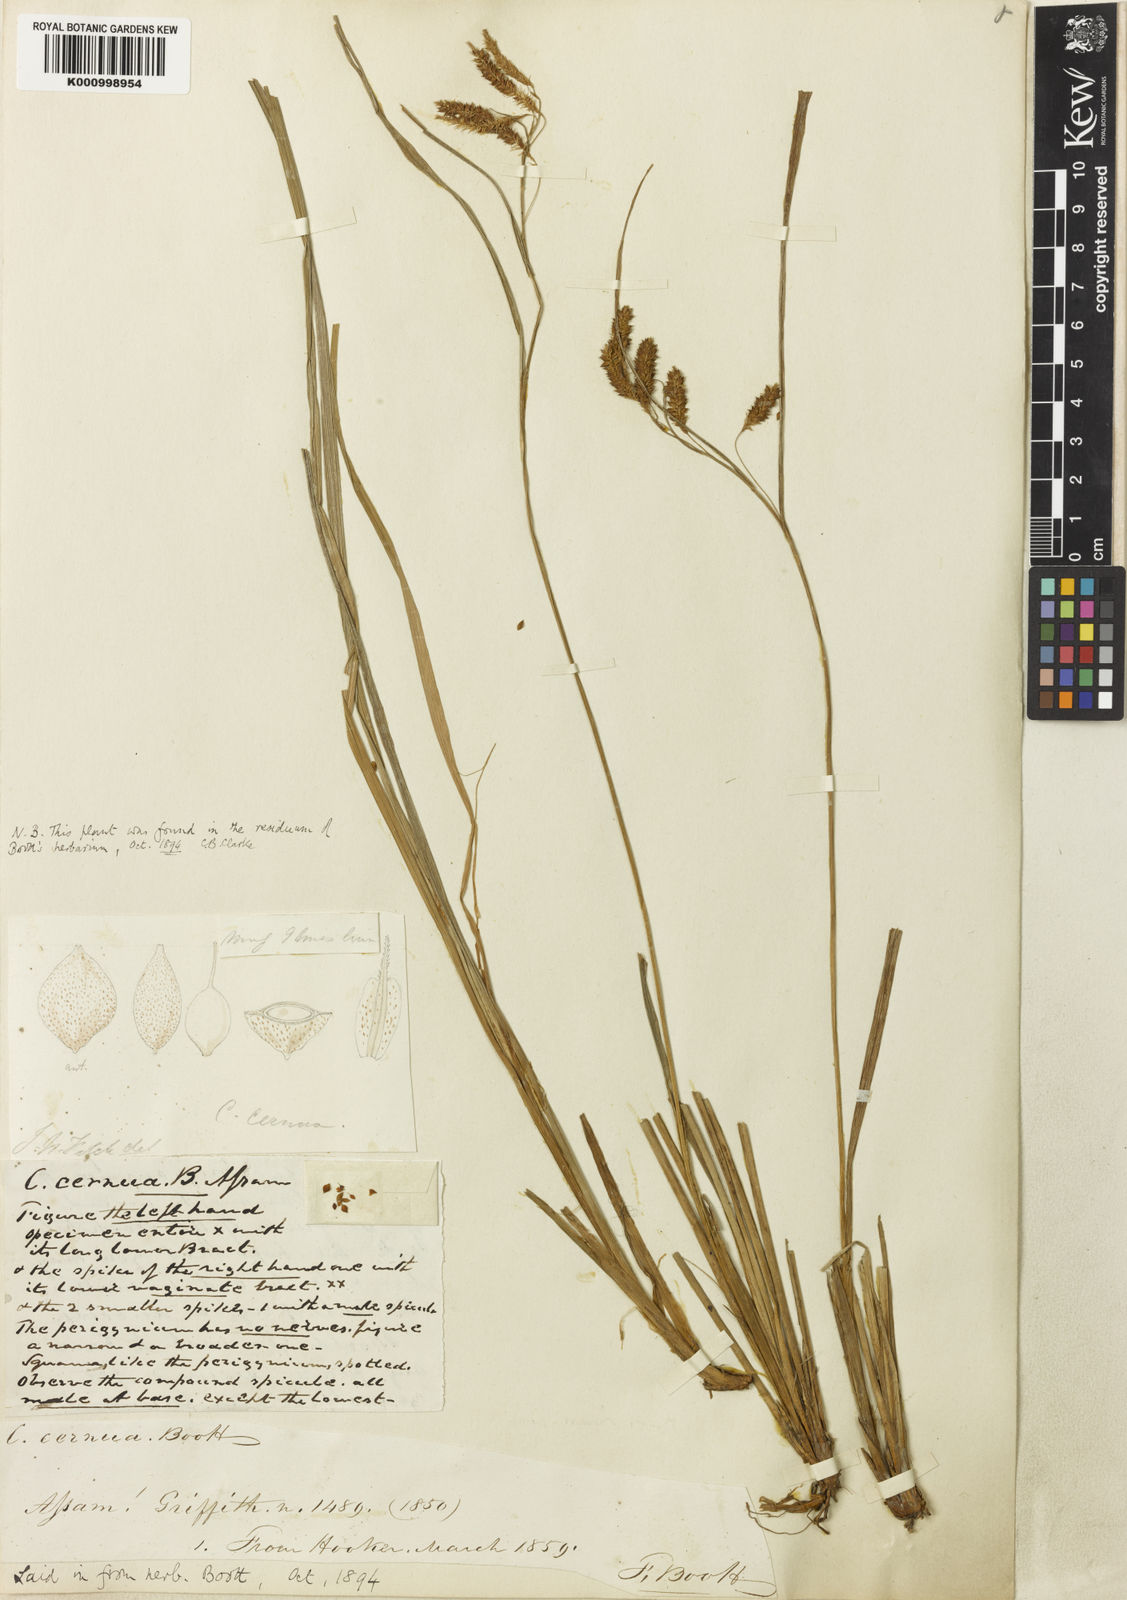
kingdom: Plantae
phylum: Tracheophyta
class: Liliopsida
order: Poales
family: Cyperaceae
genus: Carex
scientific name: Carex
